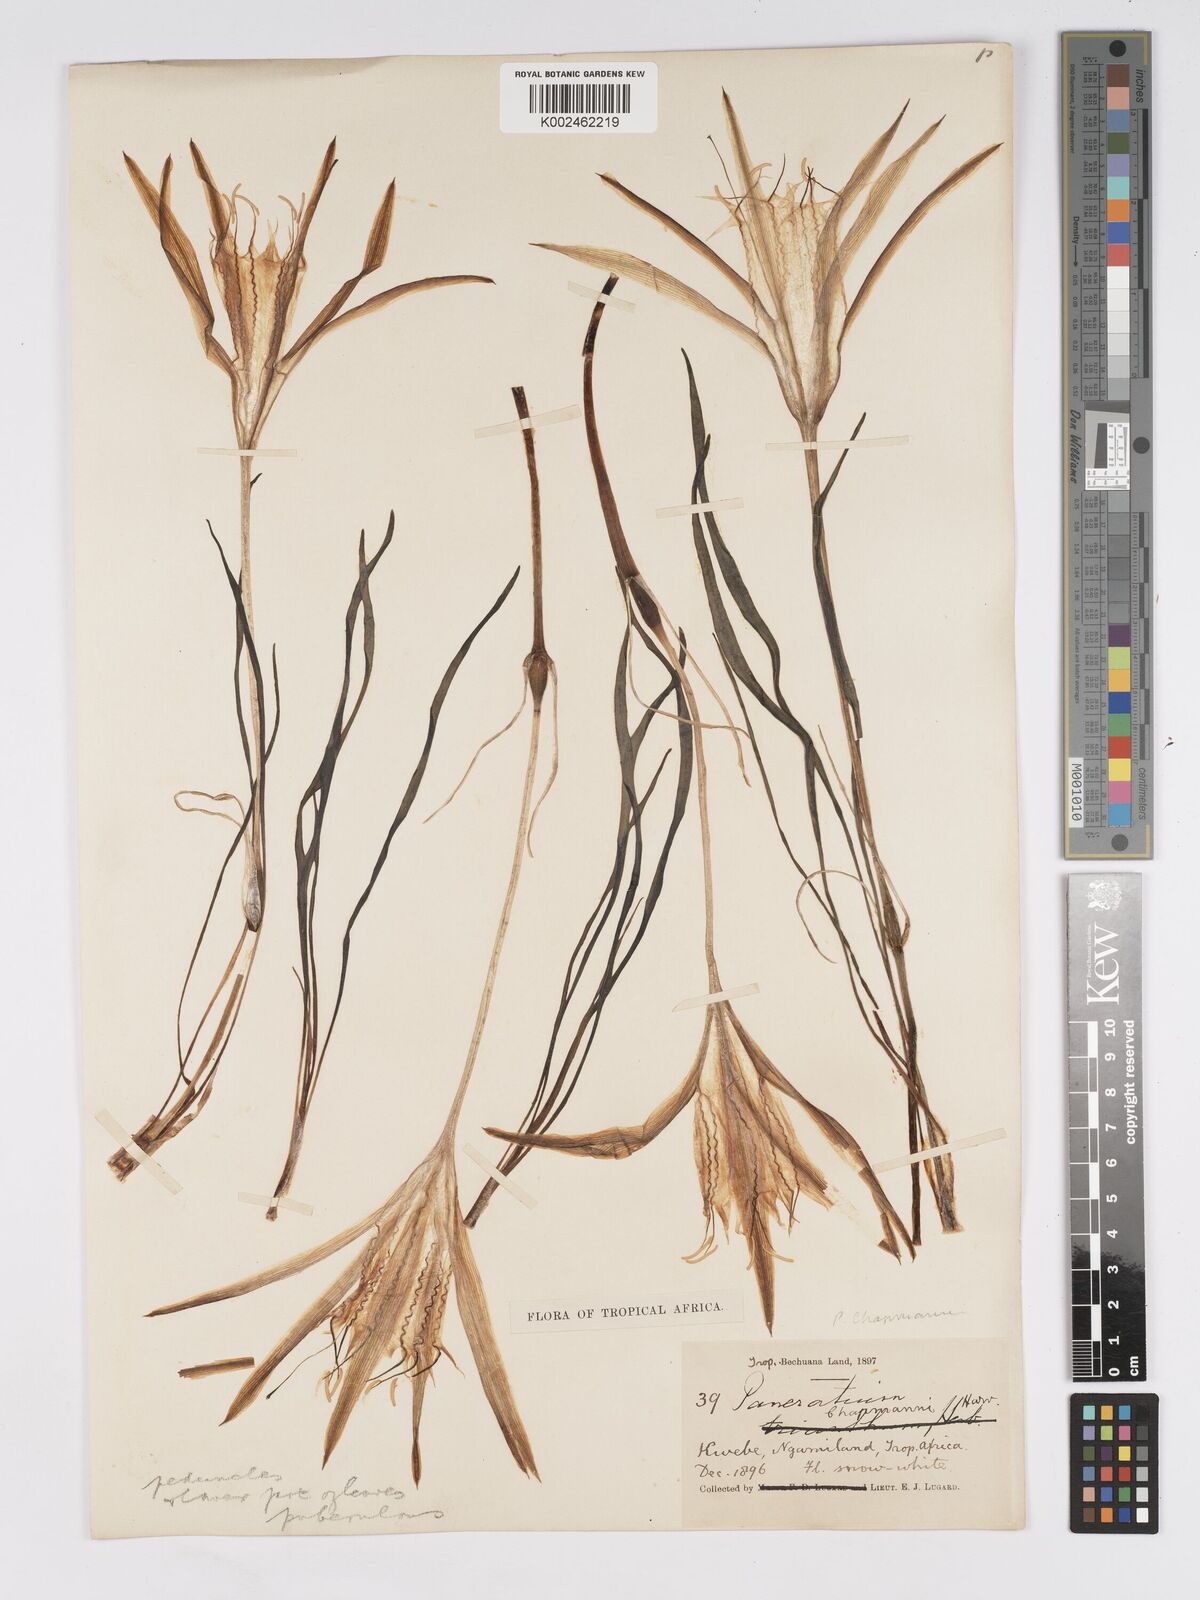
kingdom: Plantae
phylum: Tracheophyta
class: Liliopsida
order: Asparagales
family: Amaryllidaceae
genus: Pancratium
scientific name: Pancratium tenuifolium
